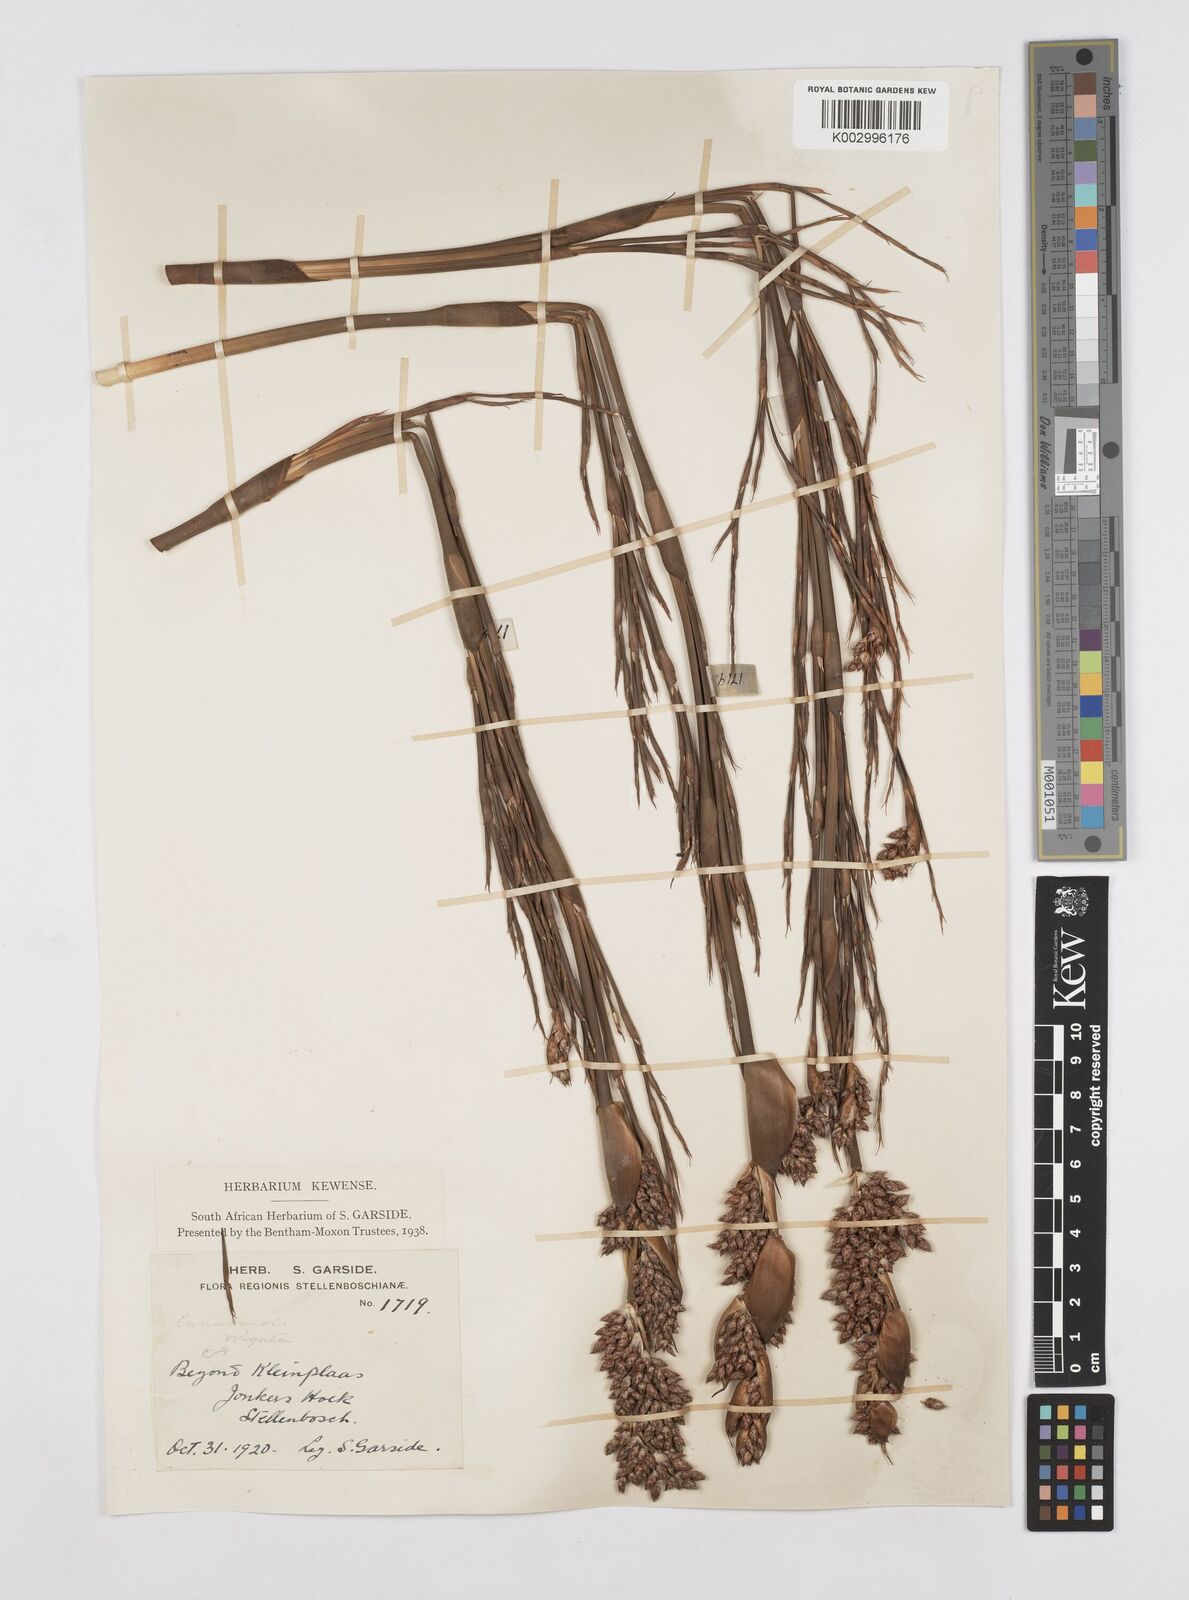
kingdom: Plantae
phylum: Tracheophyta
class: Liliopsida
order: Poales
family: Restionaceae
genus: Cannomois
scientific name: Cannomois virgata
